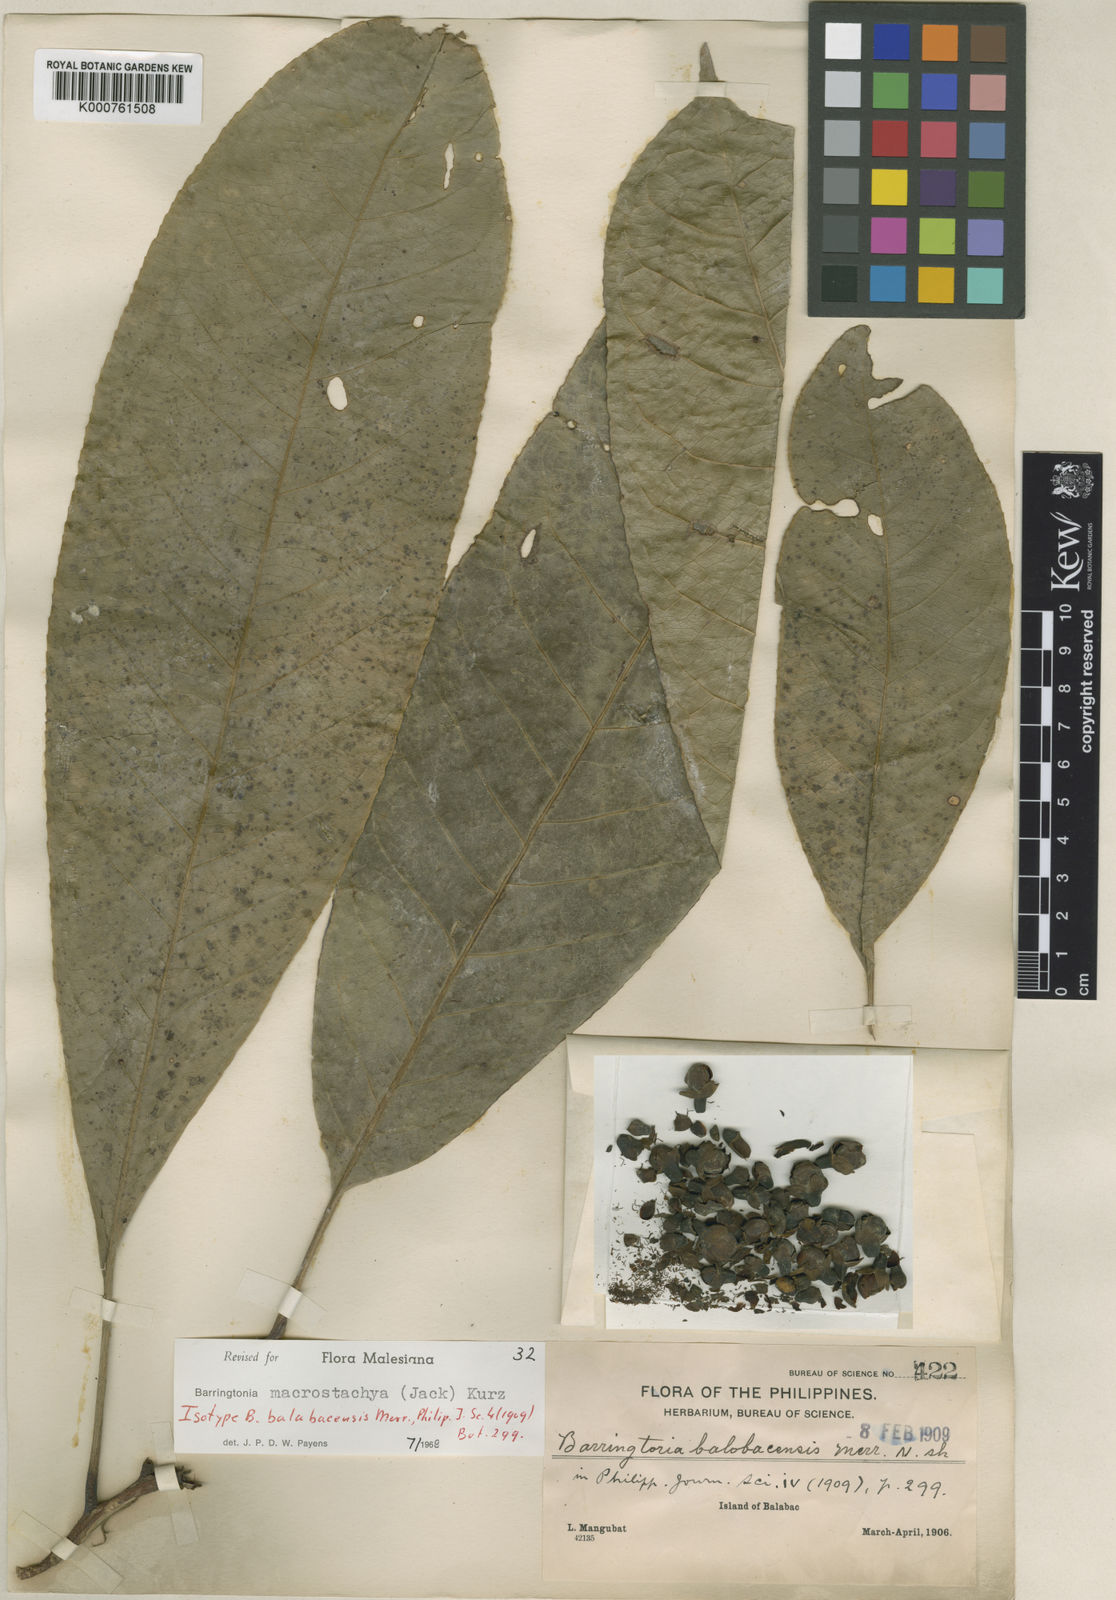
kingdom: Plantae
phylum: Tracheophyta
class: Magnoliopsida
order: Ericales
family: Lecythidaceae
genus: Barringtonia
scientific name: Barringtonia macrostachya
